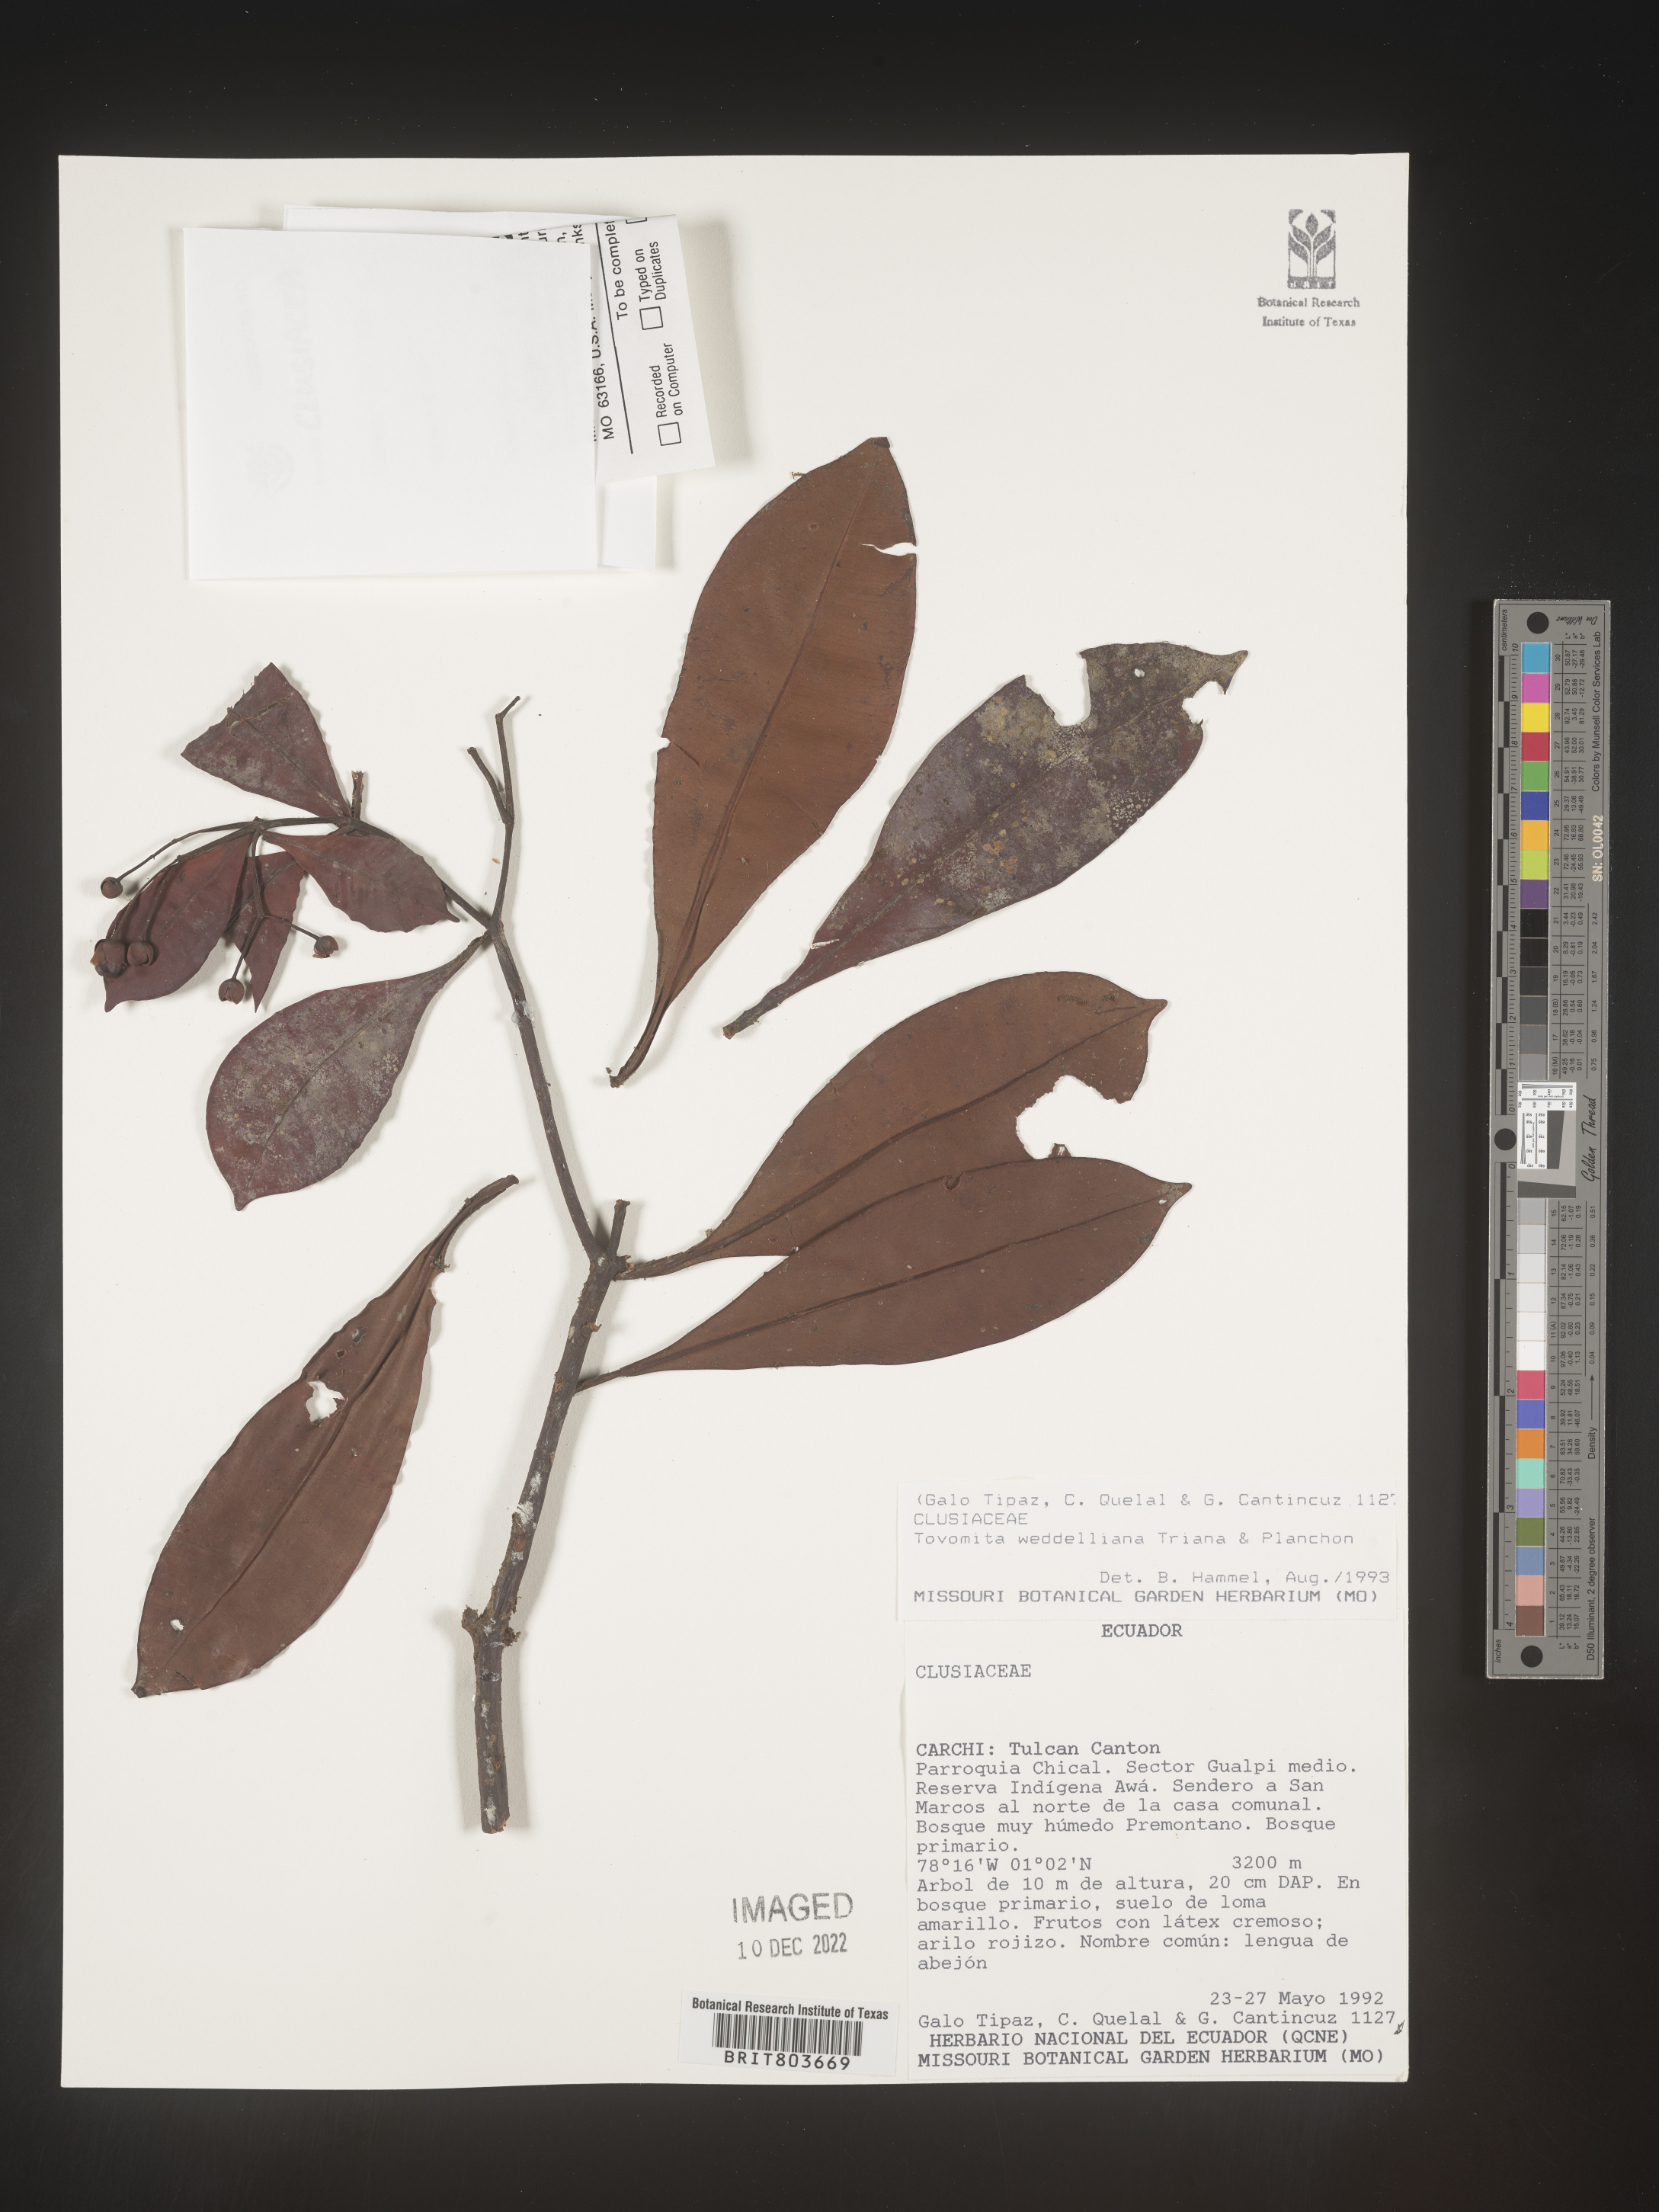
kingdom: Plantae
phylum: Tracheophyta
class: Magnoliopsida
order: Malpighiales
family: Clusiaceae
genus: Tovomita
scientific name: Tovomita
